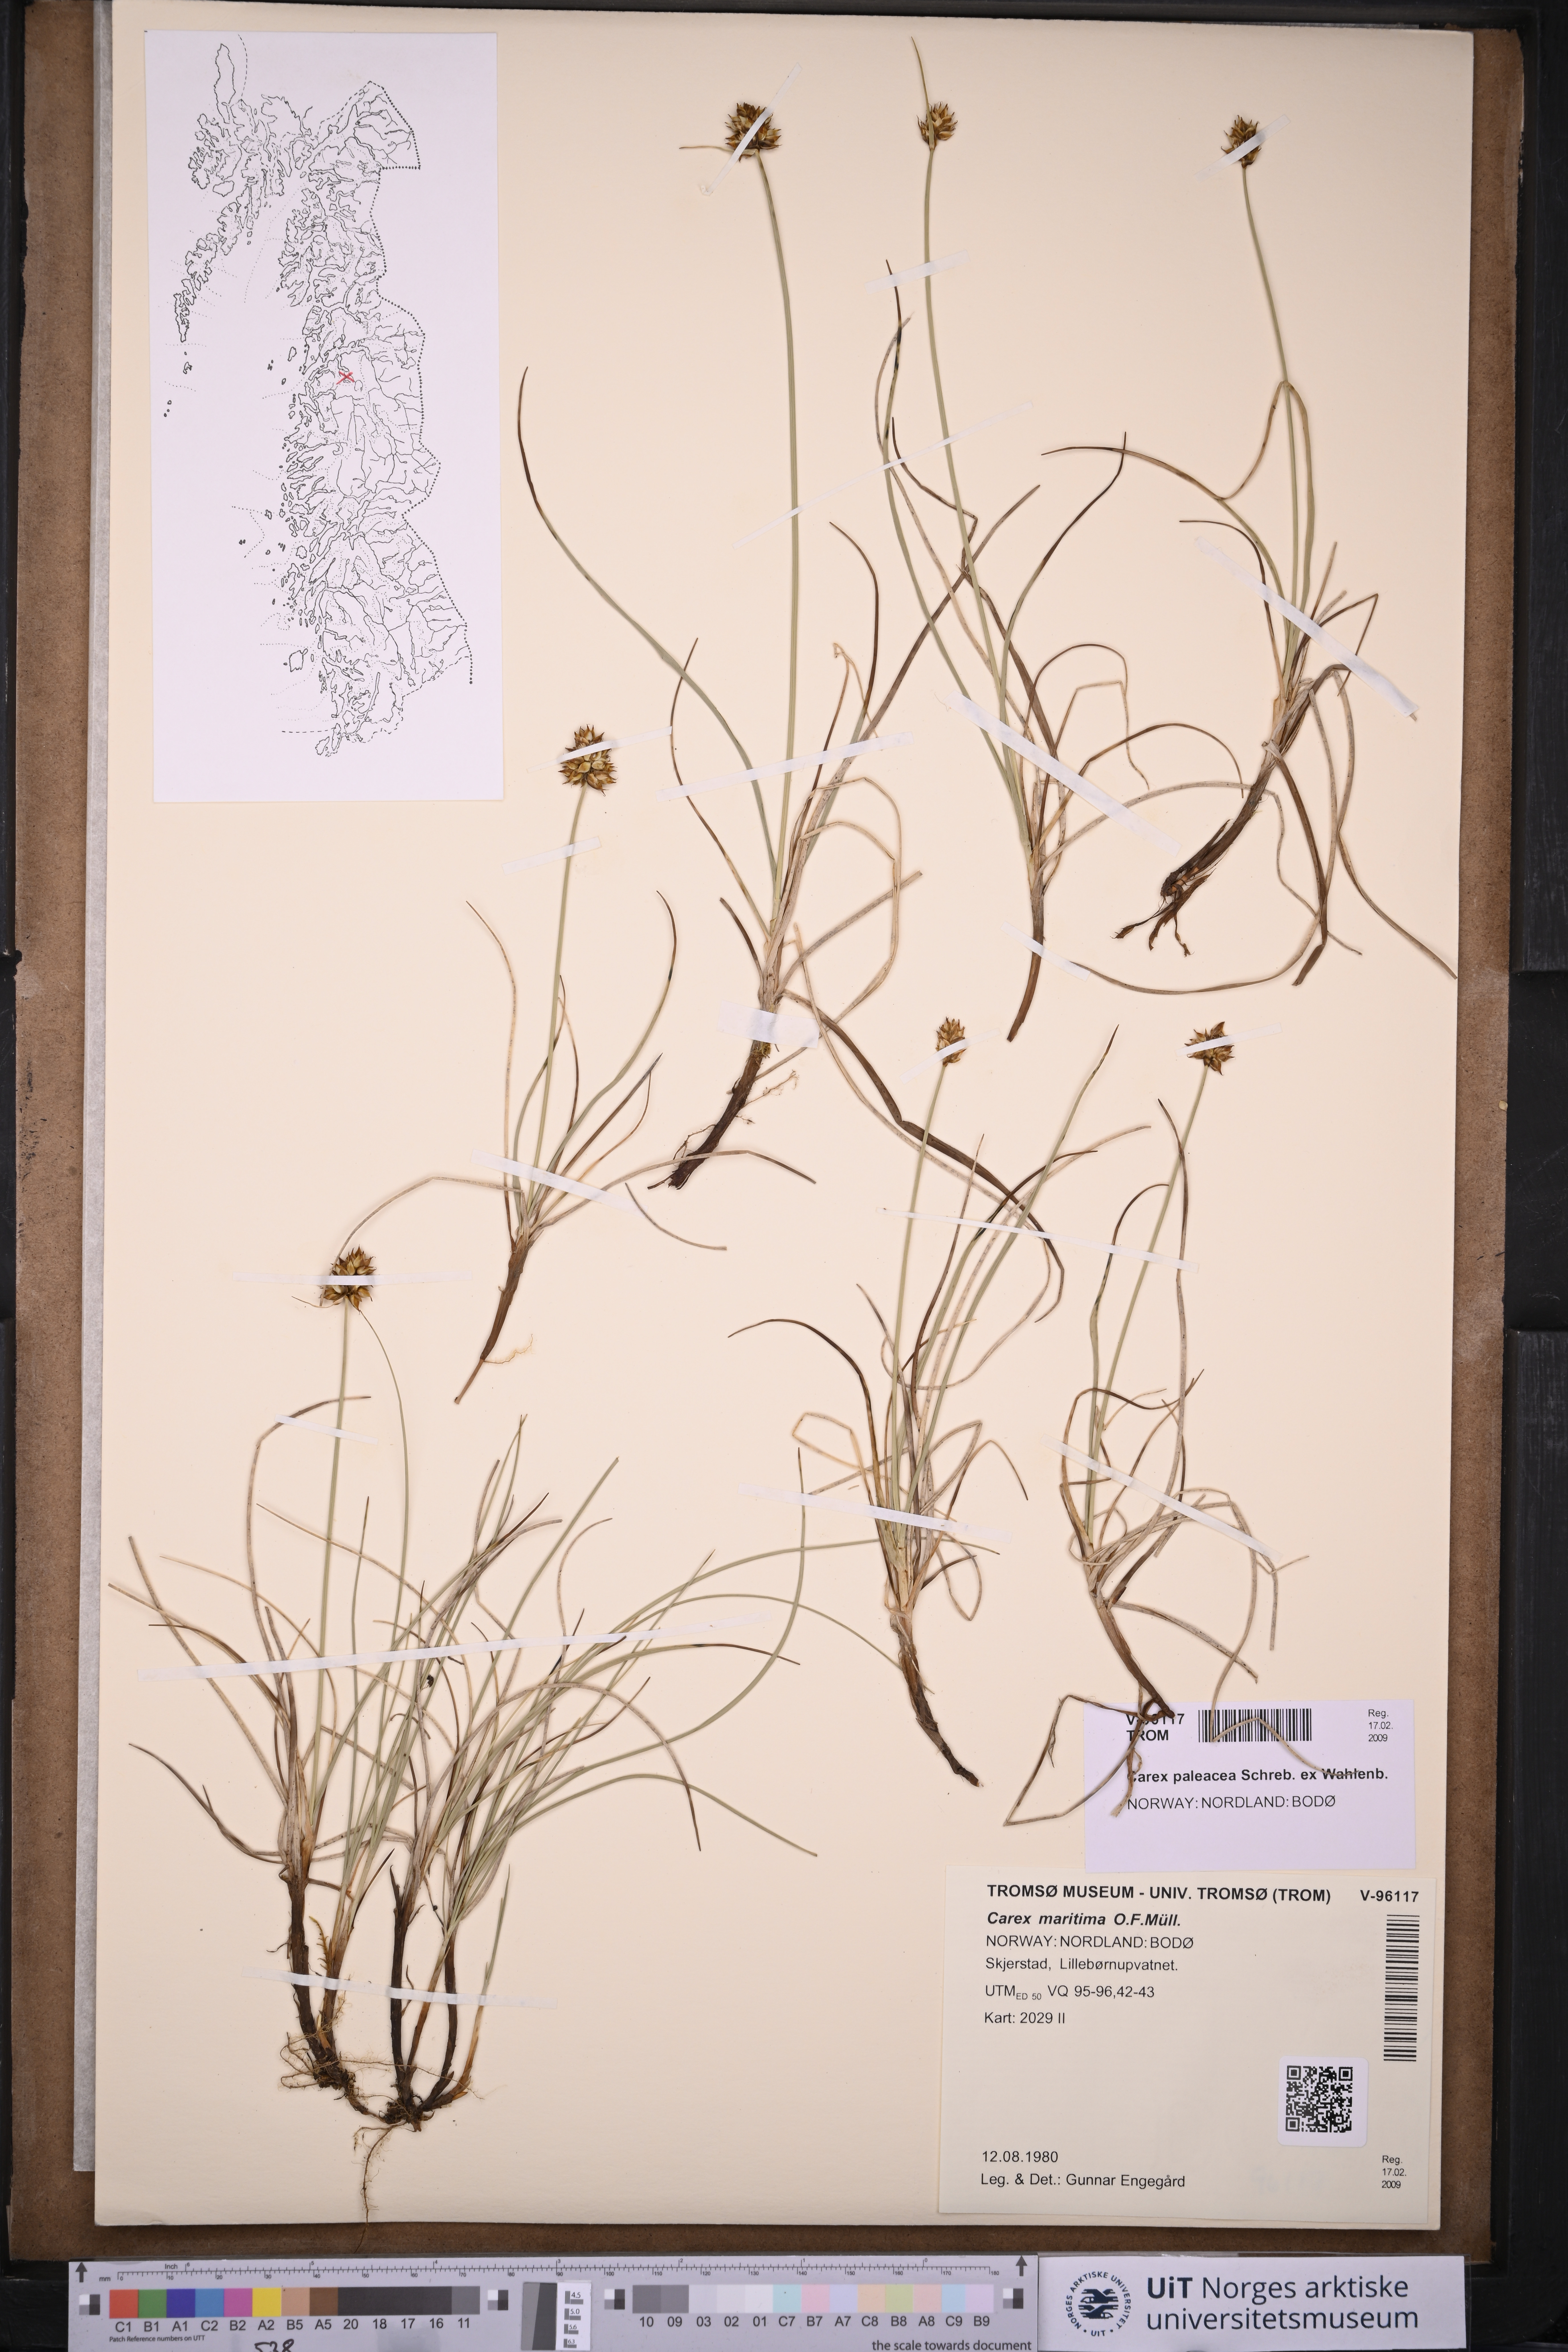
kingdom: Plantae
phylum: Tracheophyta
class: Liliopsida
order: Poales
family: Cyperaceae
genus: Carex
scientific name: Carex maritima
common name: Curved sedge
